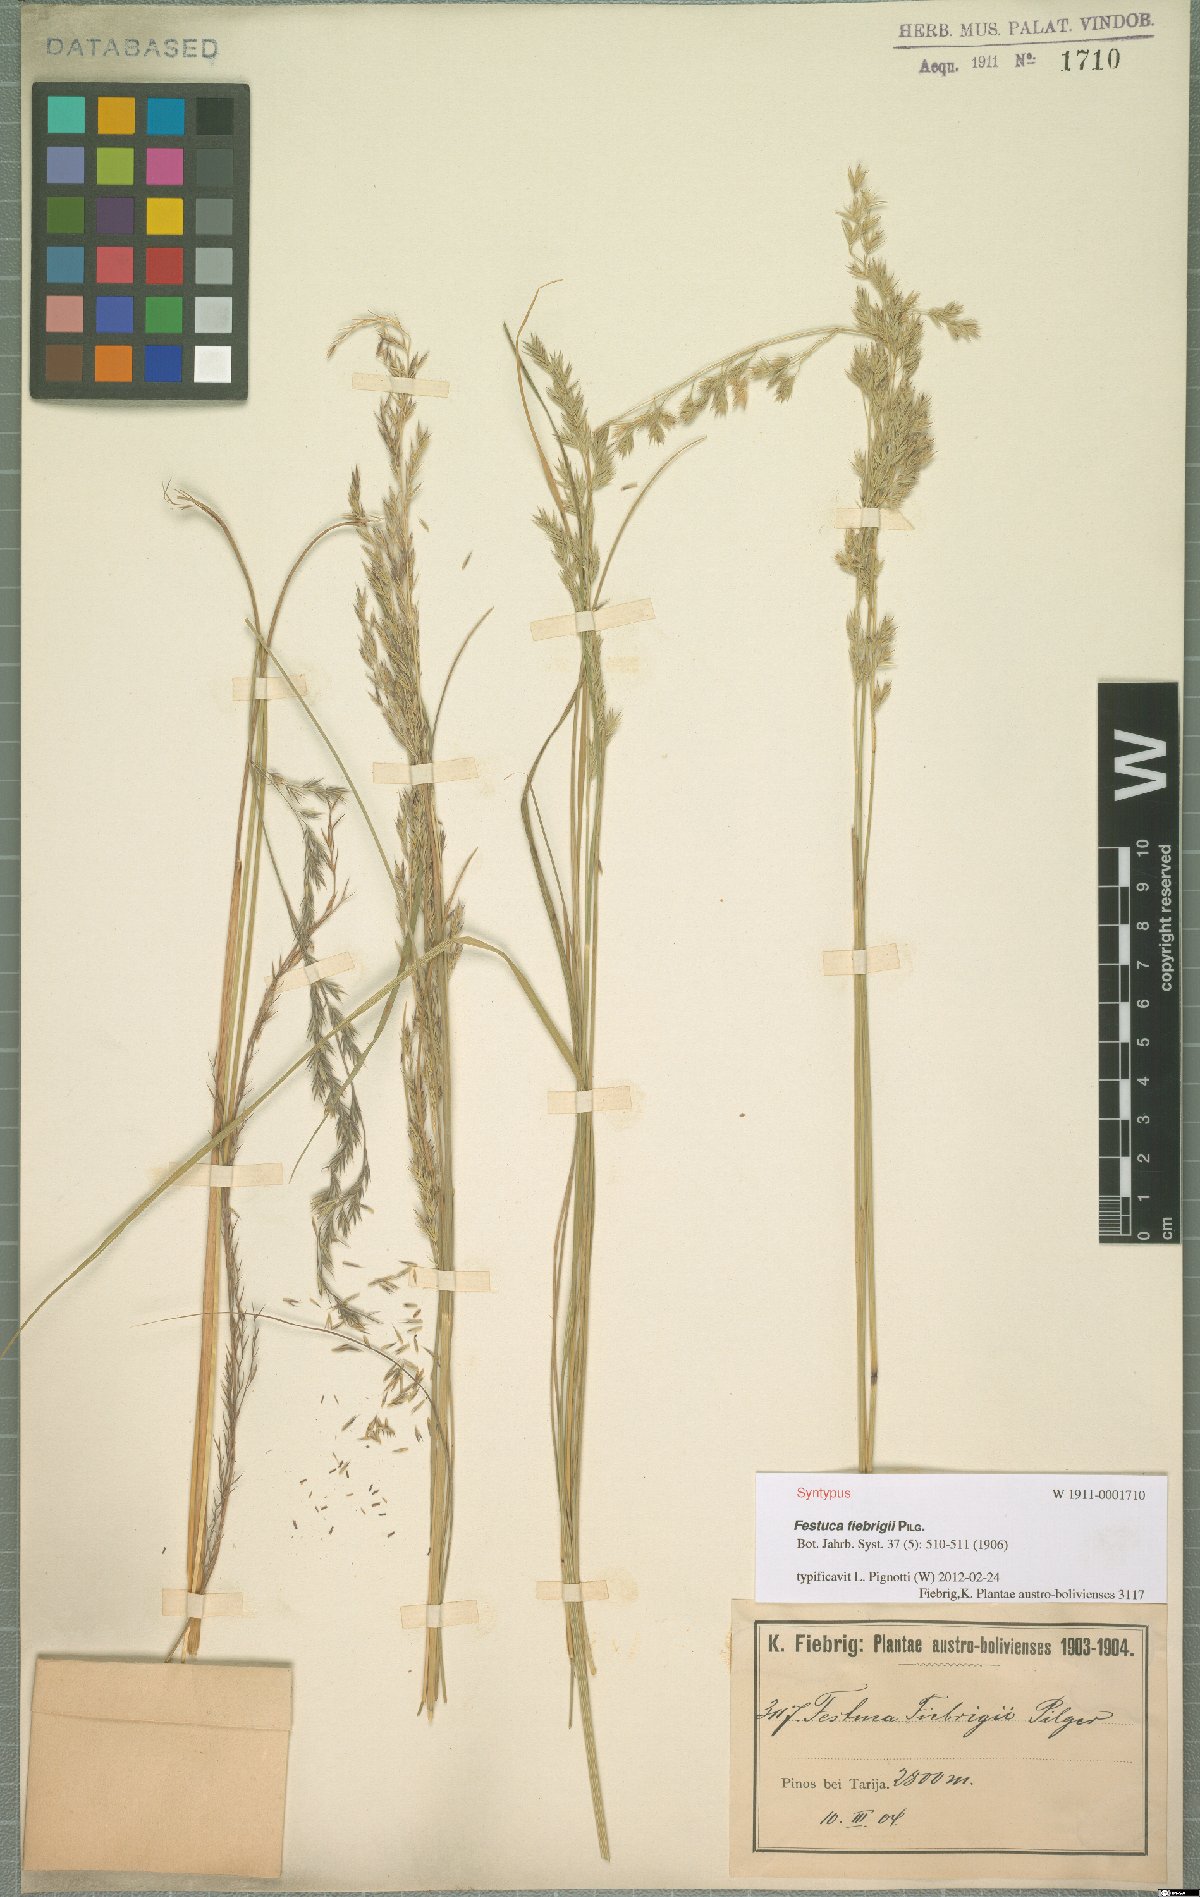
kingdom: Plantae
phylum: Tracheophyta
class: Liliopsida
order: Poales
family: Poaceae
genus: Festuca
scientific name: Festuca fiebrigii
